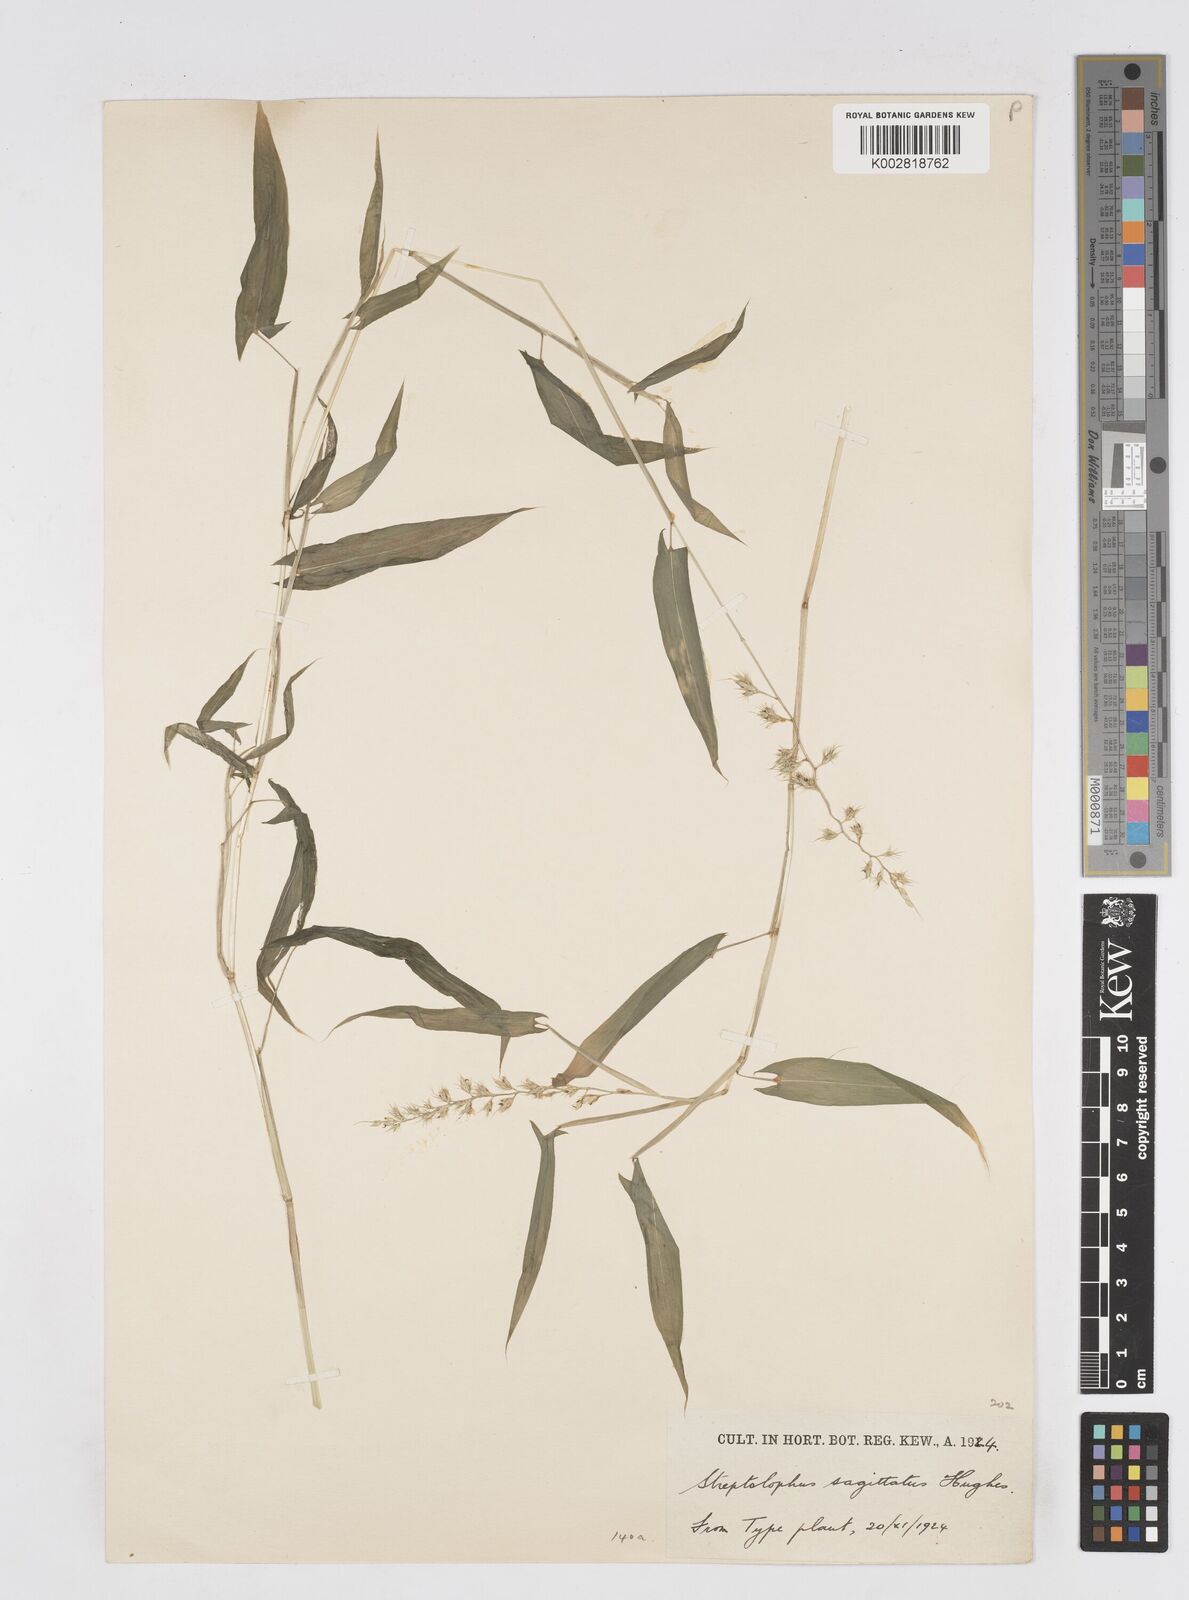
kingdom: Plantae
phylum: Tracheophyta
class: Liliopsida
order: Poales
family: Poaceae
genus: Streptolophus
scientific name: Streptolophus sagittifolius
